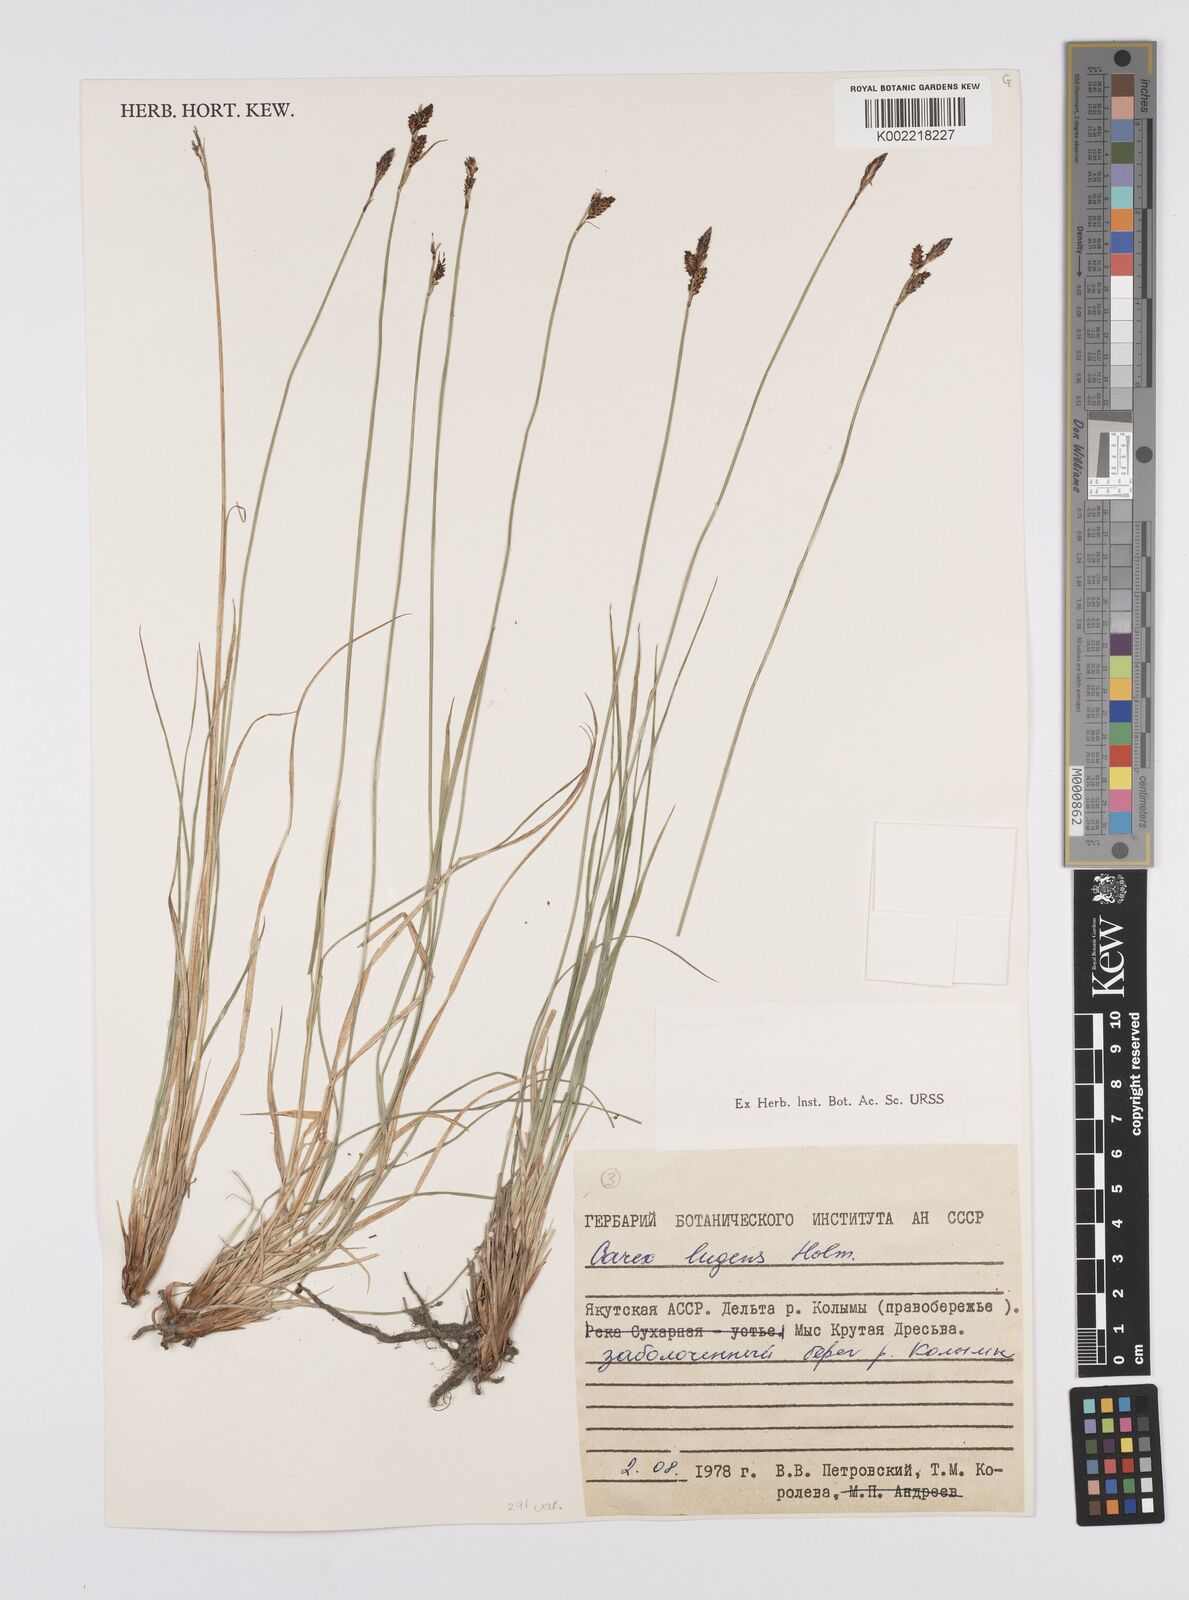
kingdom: Plantae
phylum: Tracheophyta
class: Liliopsida
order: Poales
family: Cyperaceae
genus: Carex
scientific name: Carex bigelowii
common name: Stiff sedge
